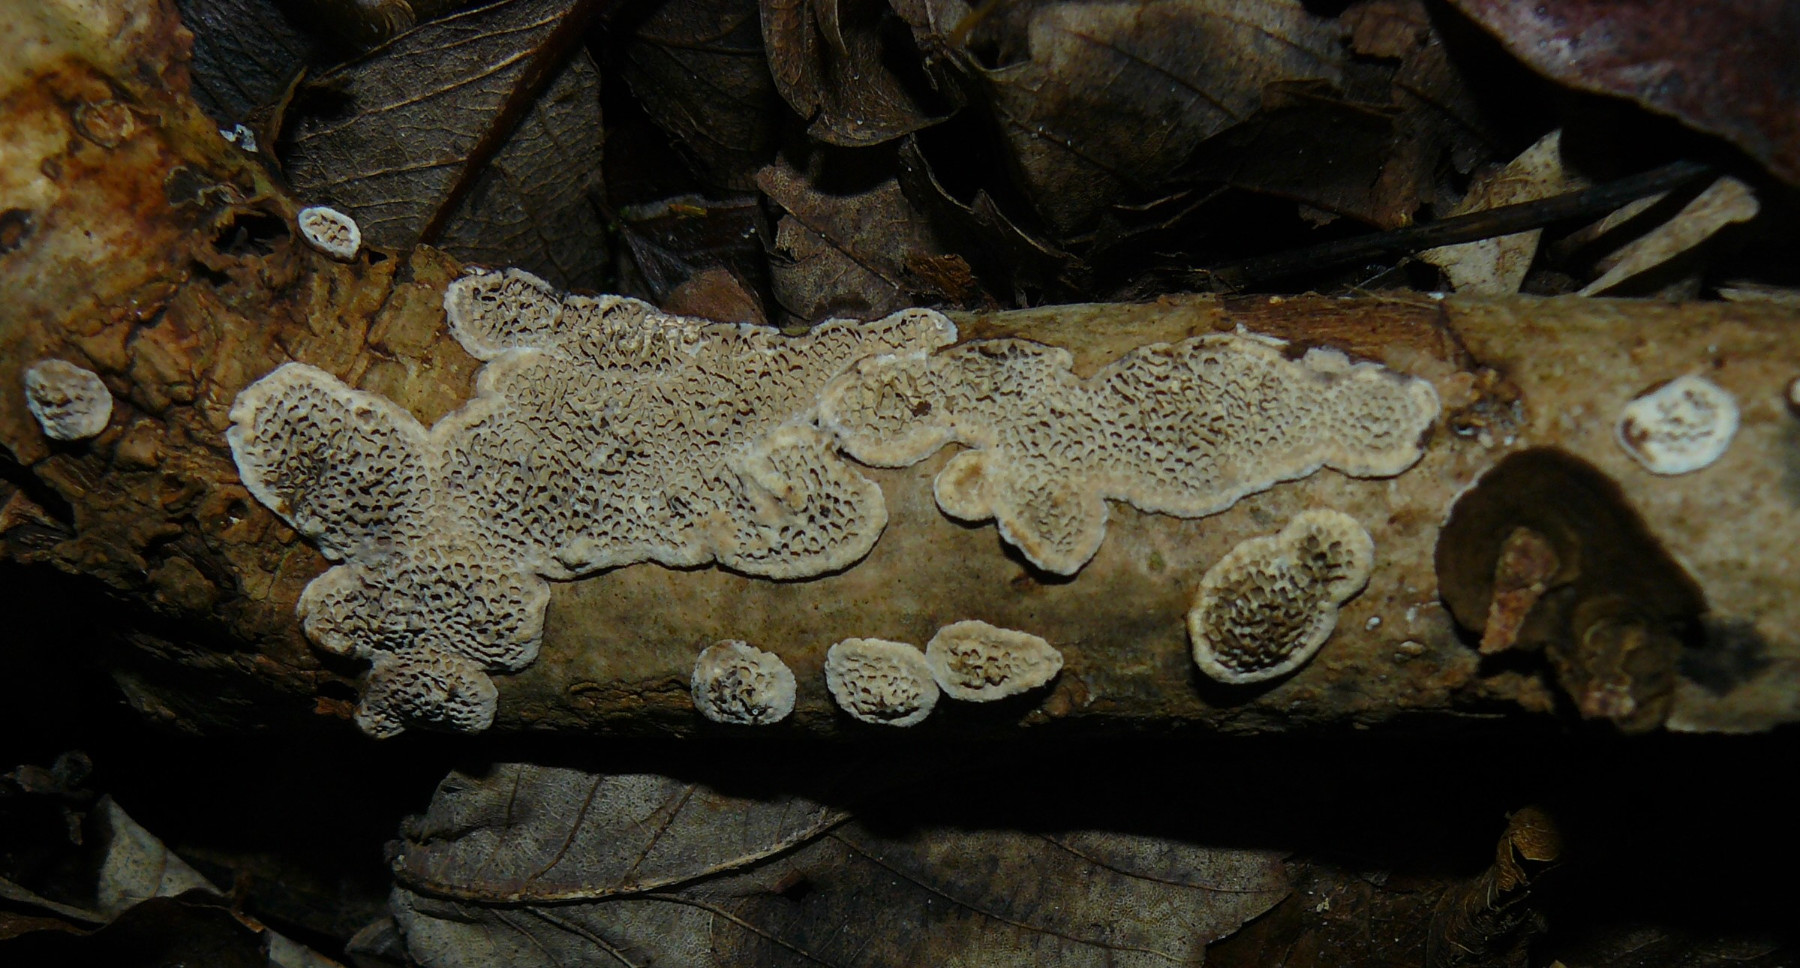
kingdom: Fungi
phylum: Basidiomycota
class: Agaricomycetes
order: Polyporales
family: Polyporaceae
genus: Podofomes
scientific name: Podofomes mollis
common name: blød begporesvamp
